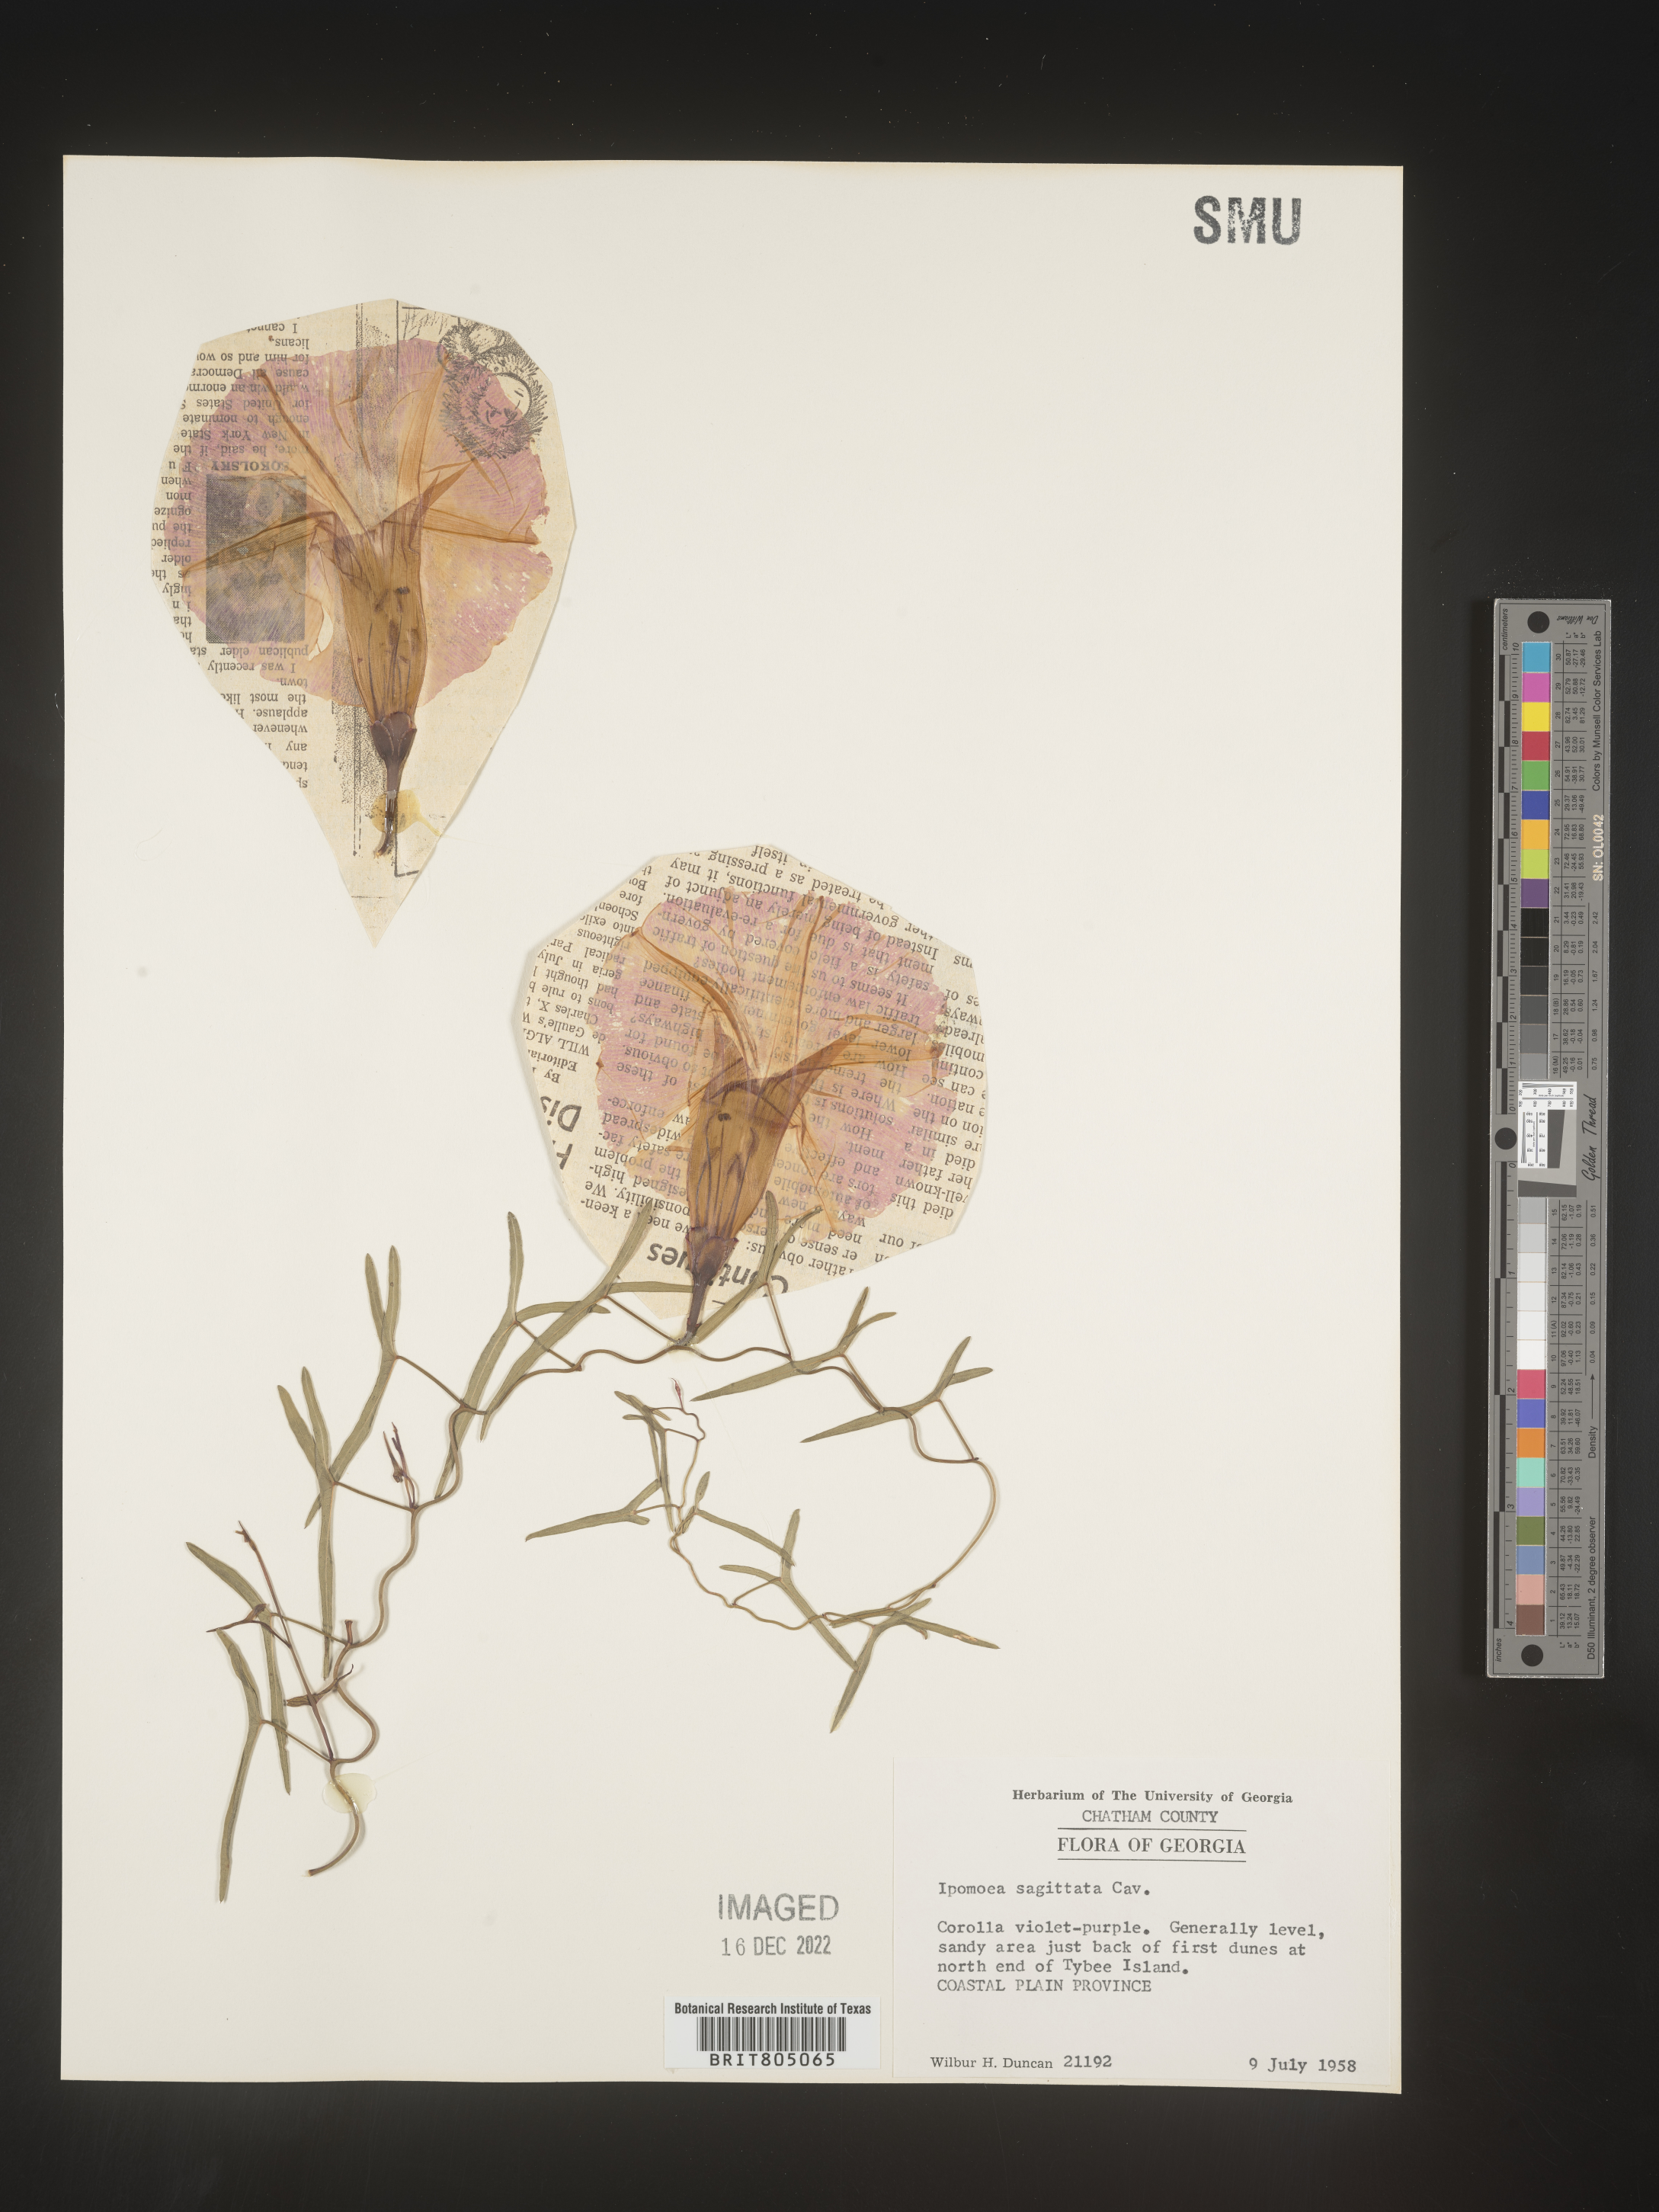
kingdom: Plantae
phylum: Tracheophyta
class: Magnoliopsida
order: Solanales
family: Convolvulaceae
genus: Ipomoea
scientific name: Ipomoea sinensis
